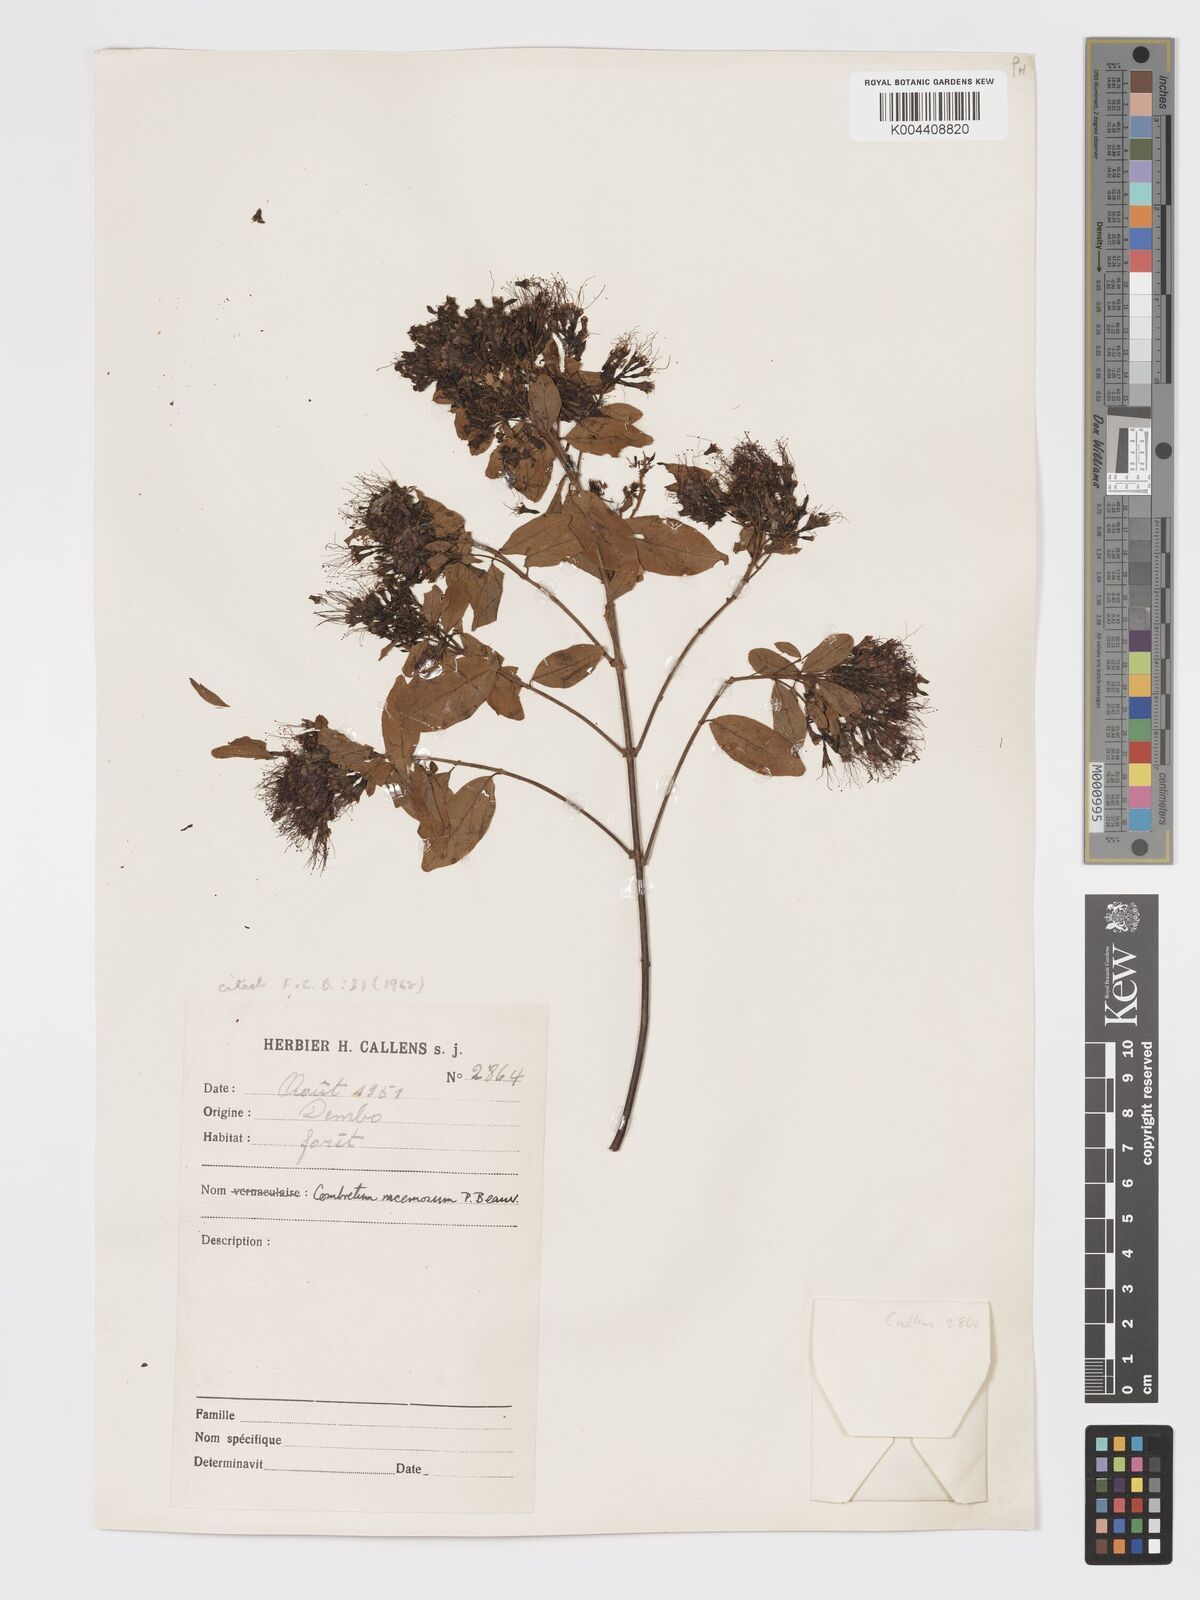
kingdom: Plantae
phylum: Tracheophyta
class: Magnoliopsida
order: Myrtales
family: Combretaceae
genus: Combretum
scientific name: Combretum racemosum
